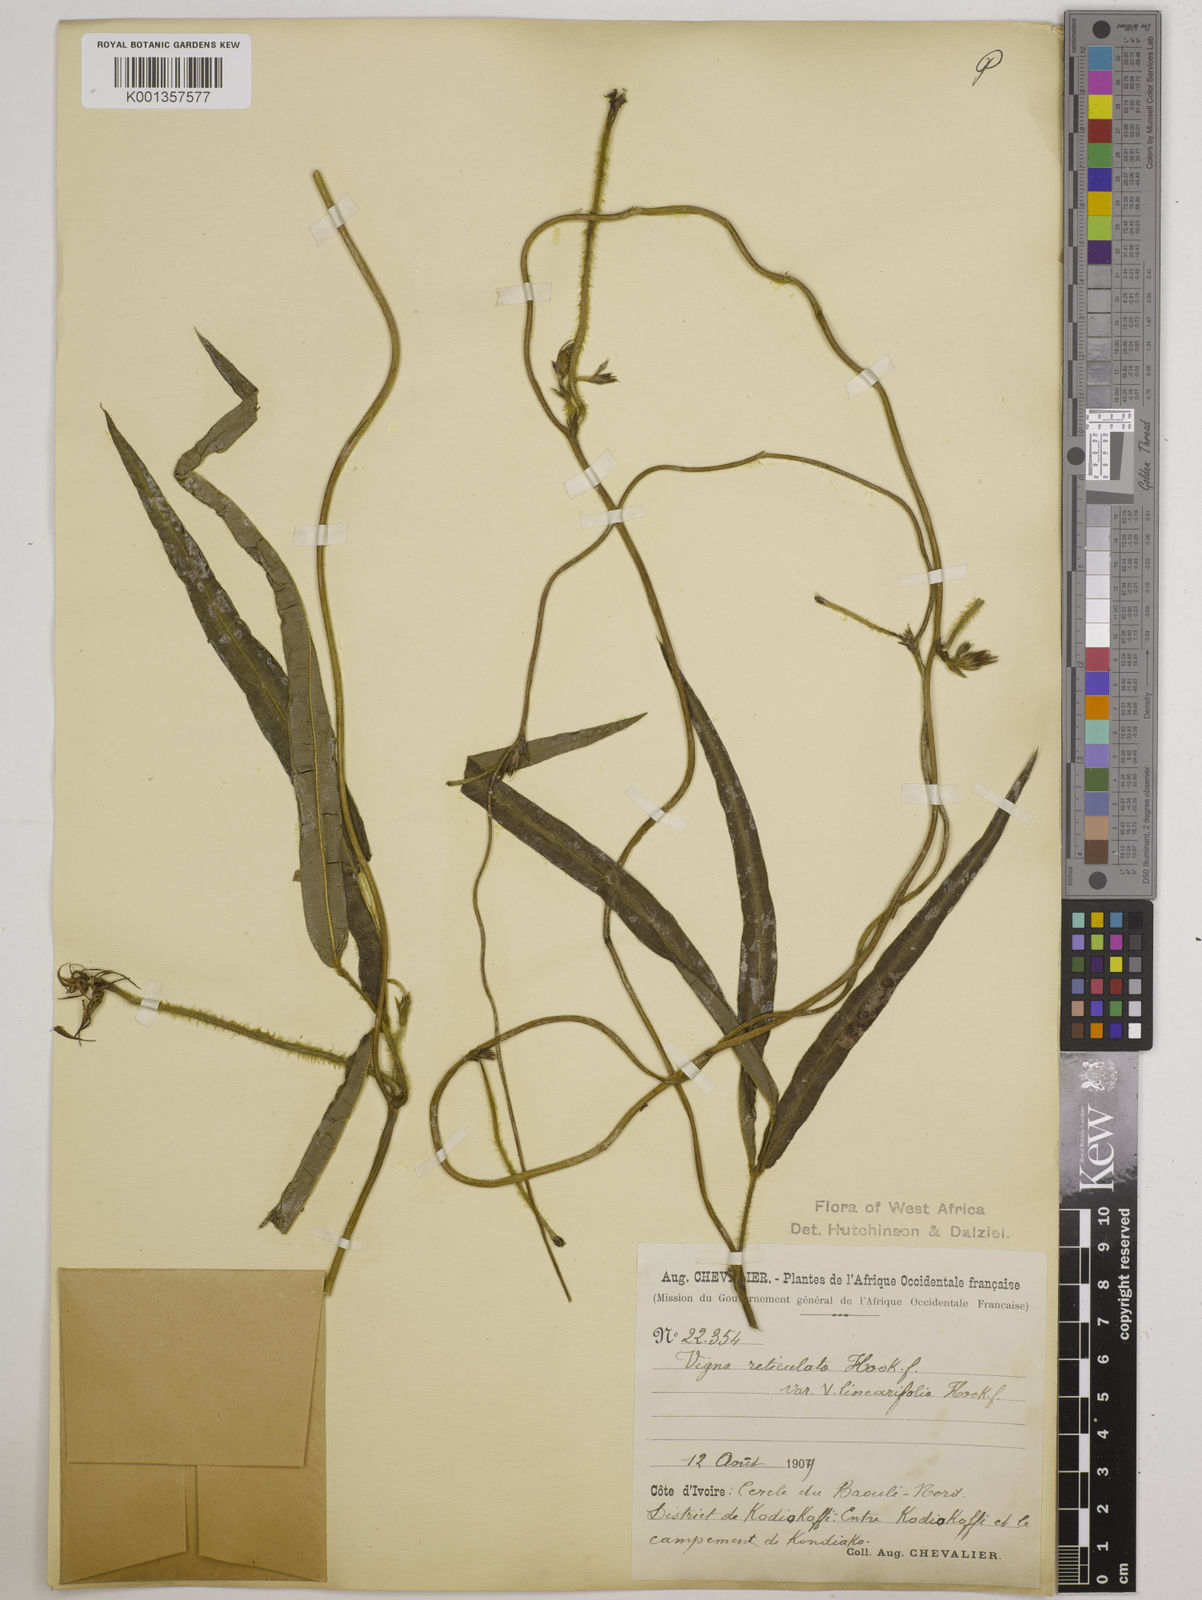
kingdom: Plantae
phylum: Tracheophyta
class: Magnoliopsida
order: Fabales
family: Fabaceae
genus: Vigna
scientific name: Vigna reticulata
